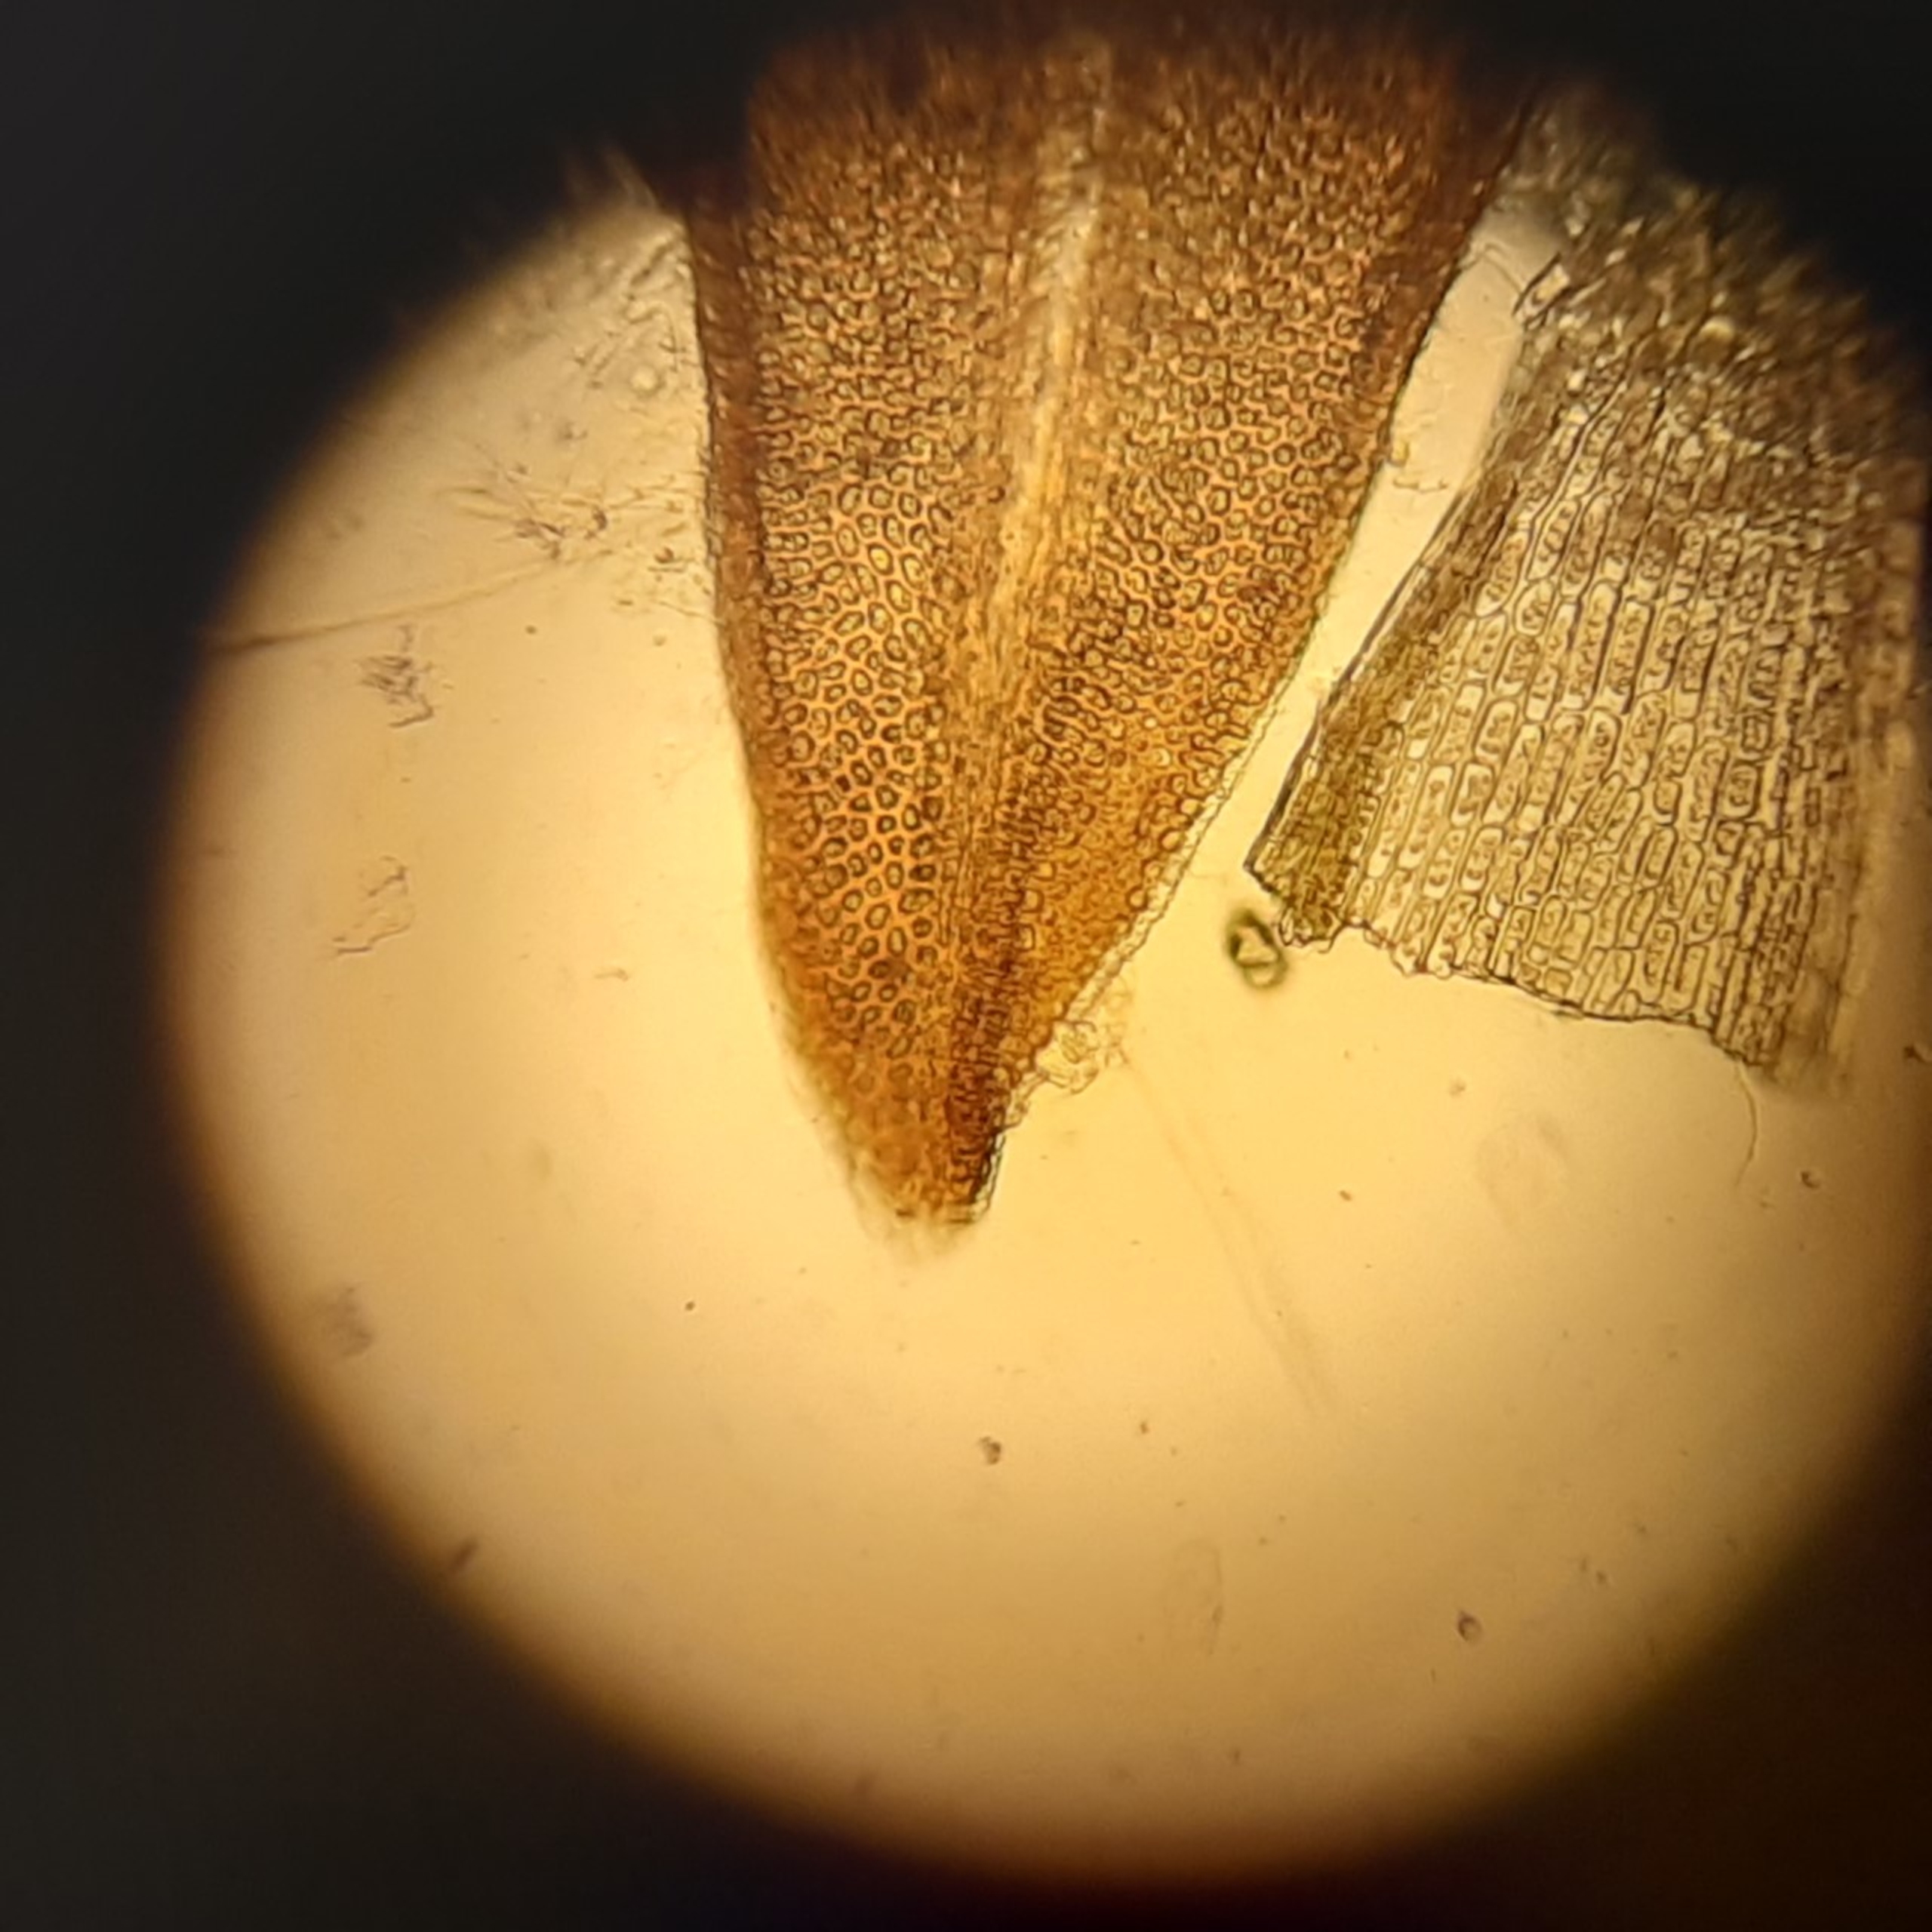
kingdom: Plantae
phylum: Bryophyta
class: Bryopsida
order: Orthotrichales
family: Orthotrichaceae
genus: Orthotrichum
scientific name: Orthotrichum anomalum
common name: Mørk furehætte
